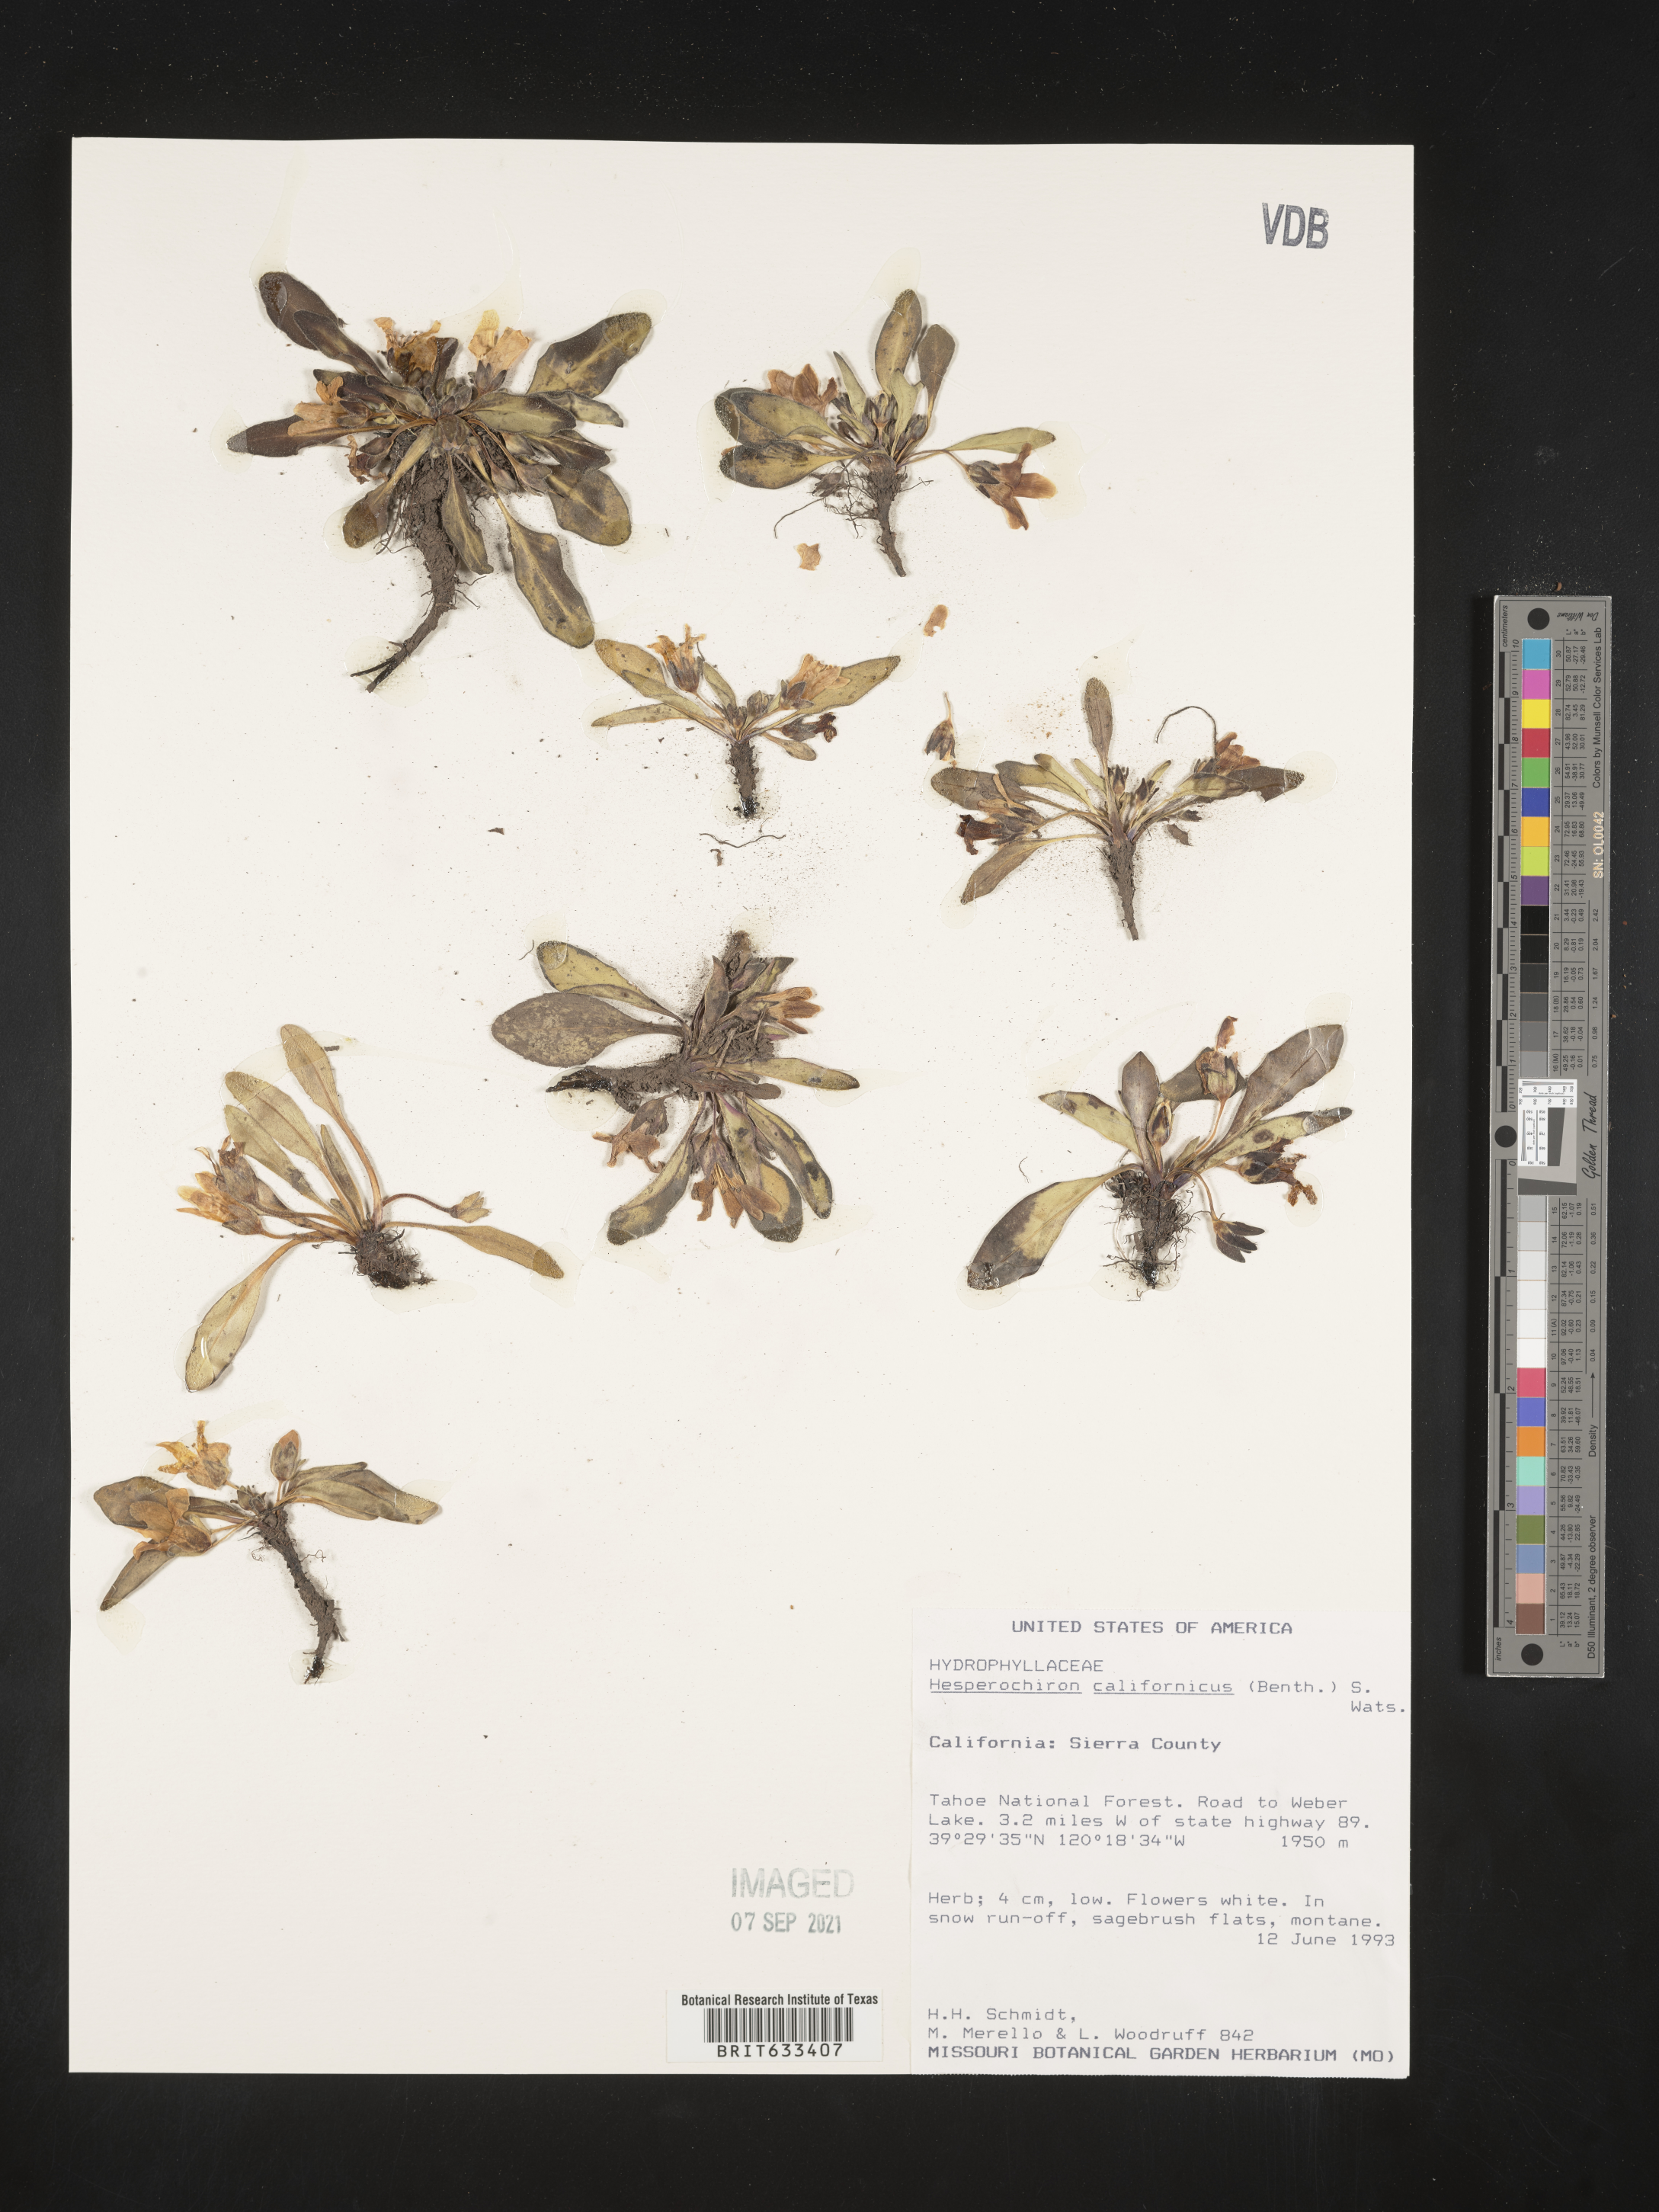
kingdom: Plantae
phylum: Tracheophyta
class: Magnoliopsida
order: Boraginales
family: Hydrophyllaceae
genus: Hesperochiron
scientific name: Hesperochiron californicus
